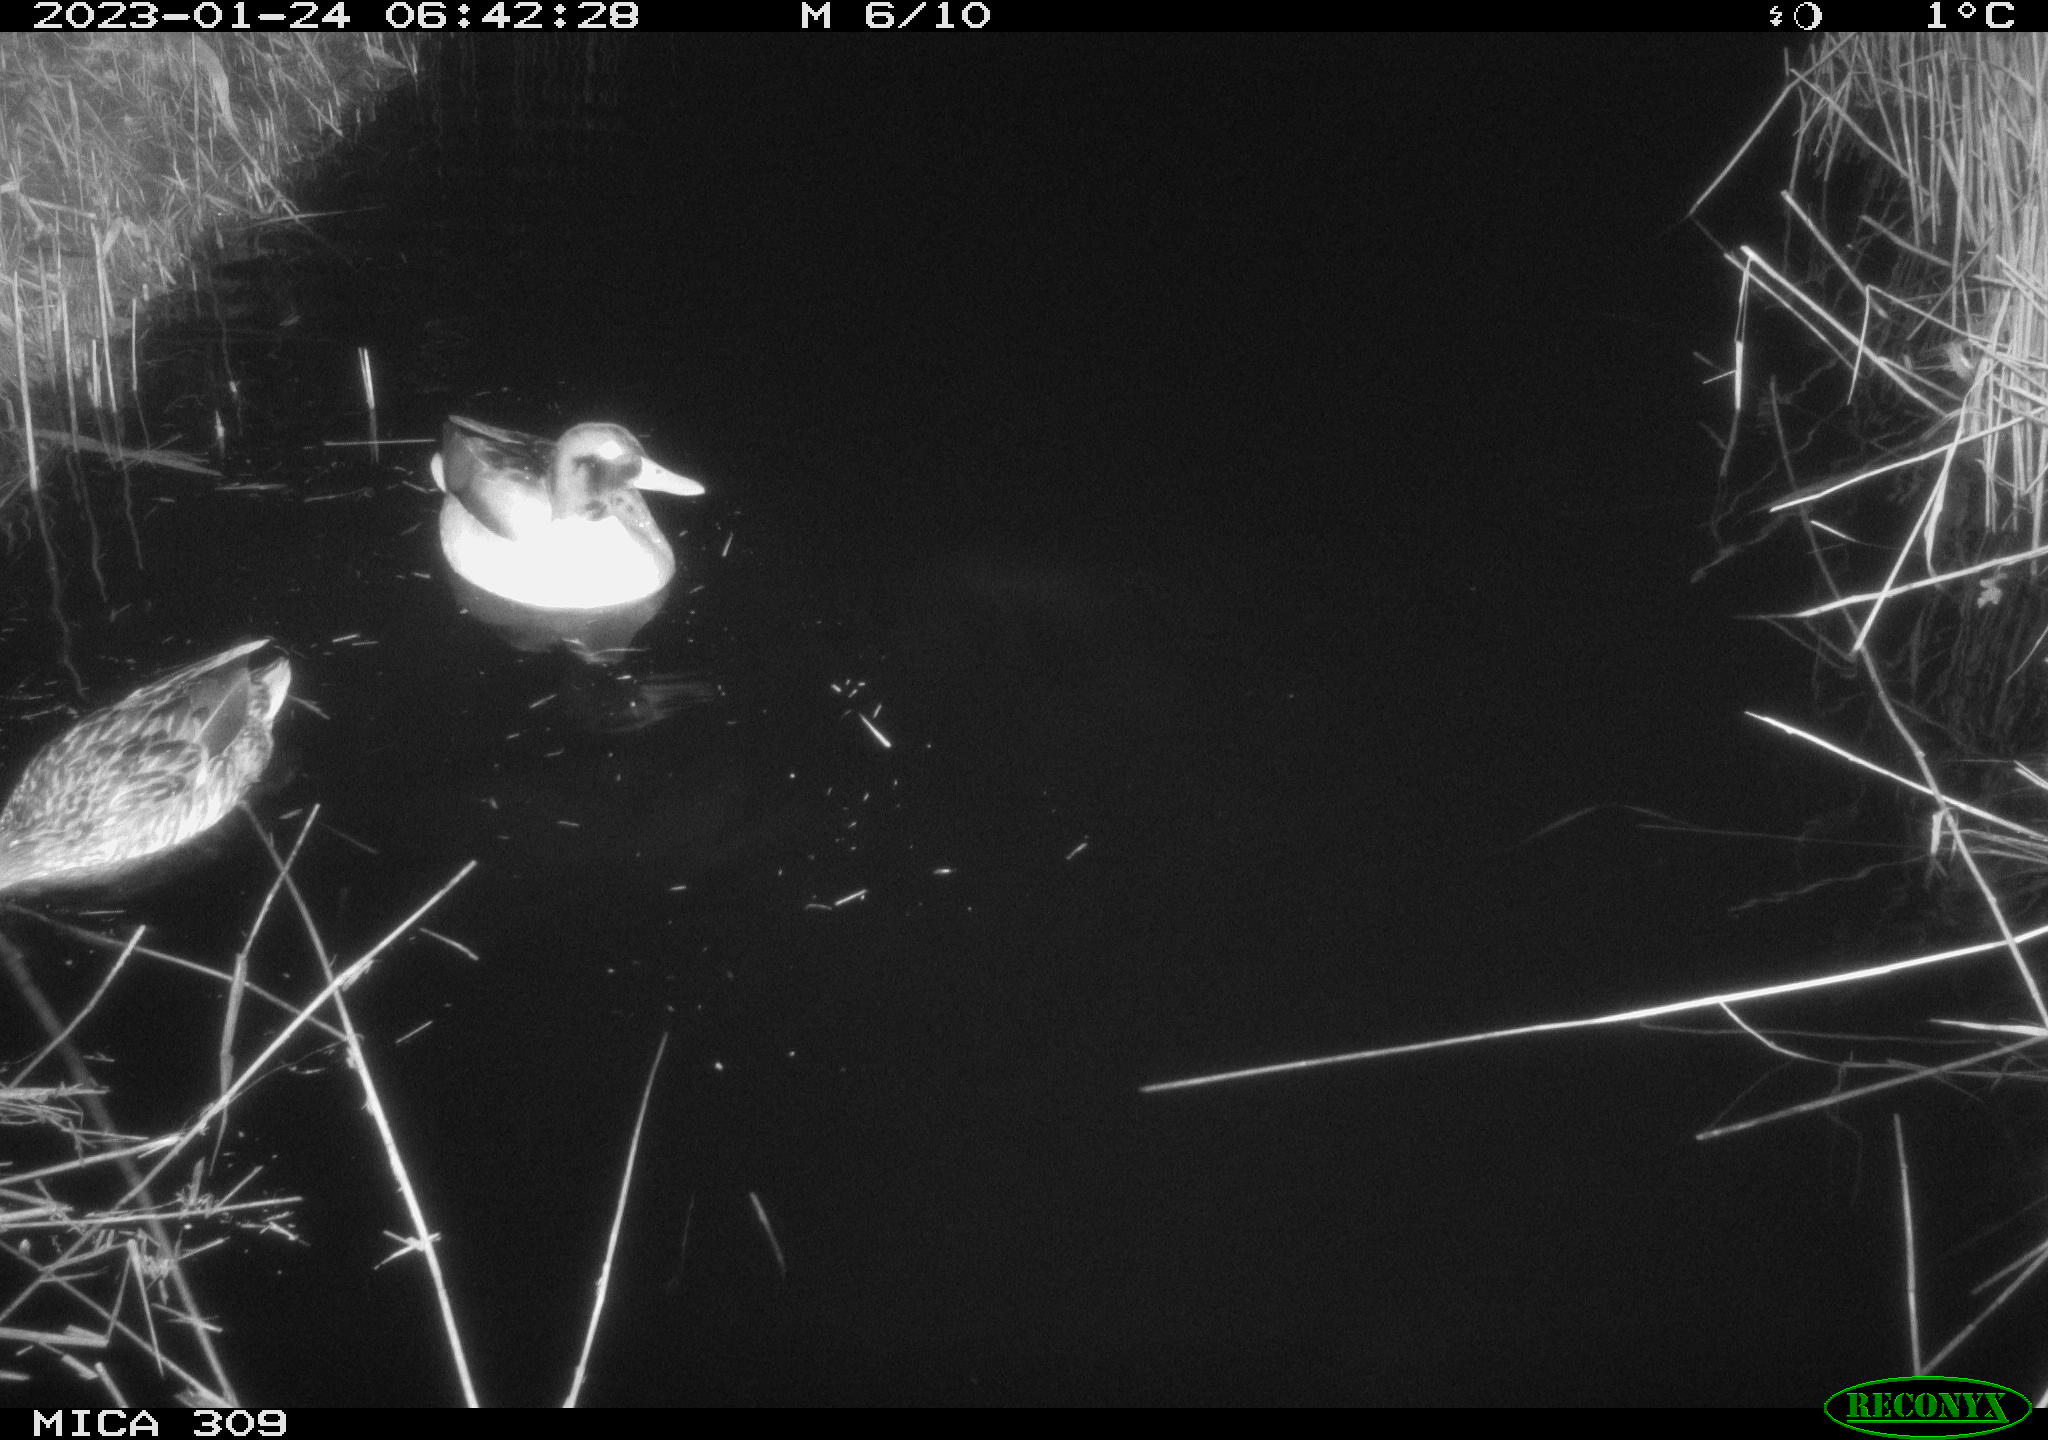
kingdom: Animalia
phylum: Chordata
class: Aves
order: Anseriformes
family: Anatidae
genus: Anas
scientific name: Anas
